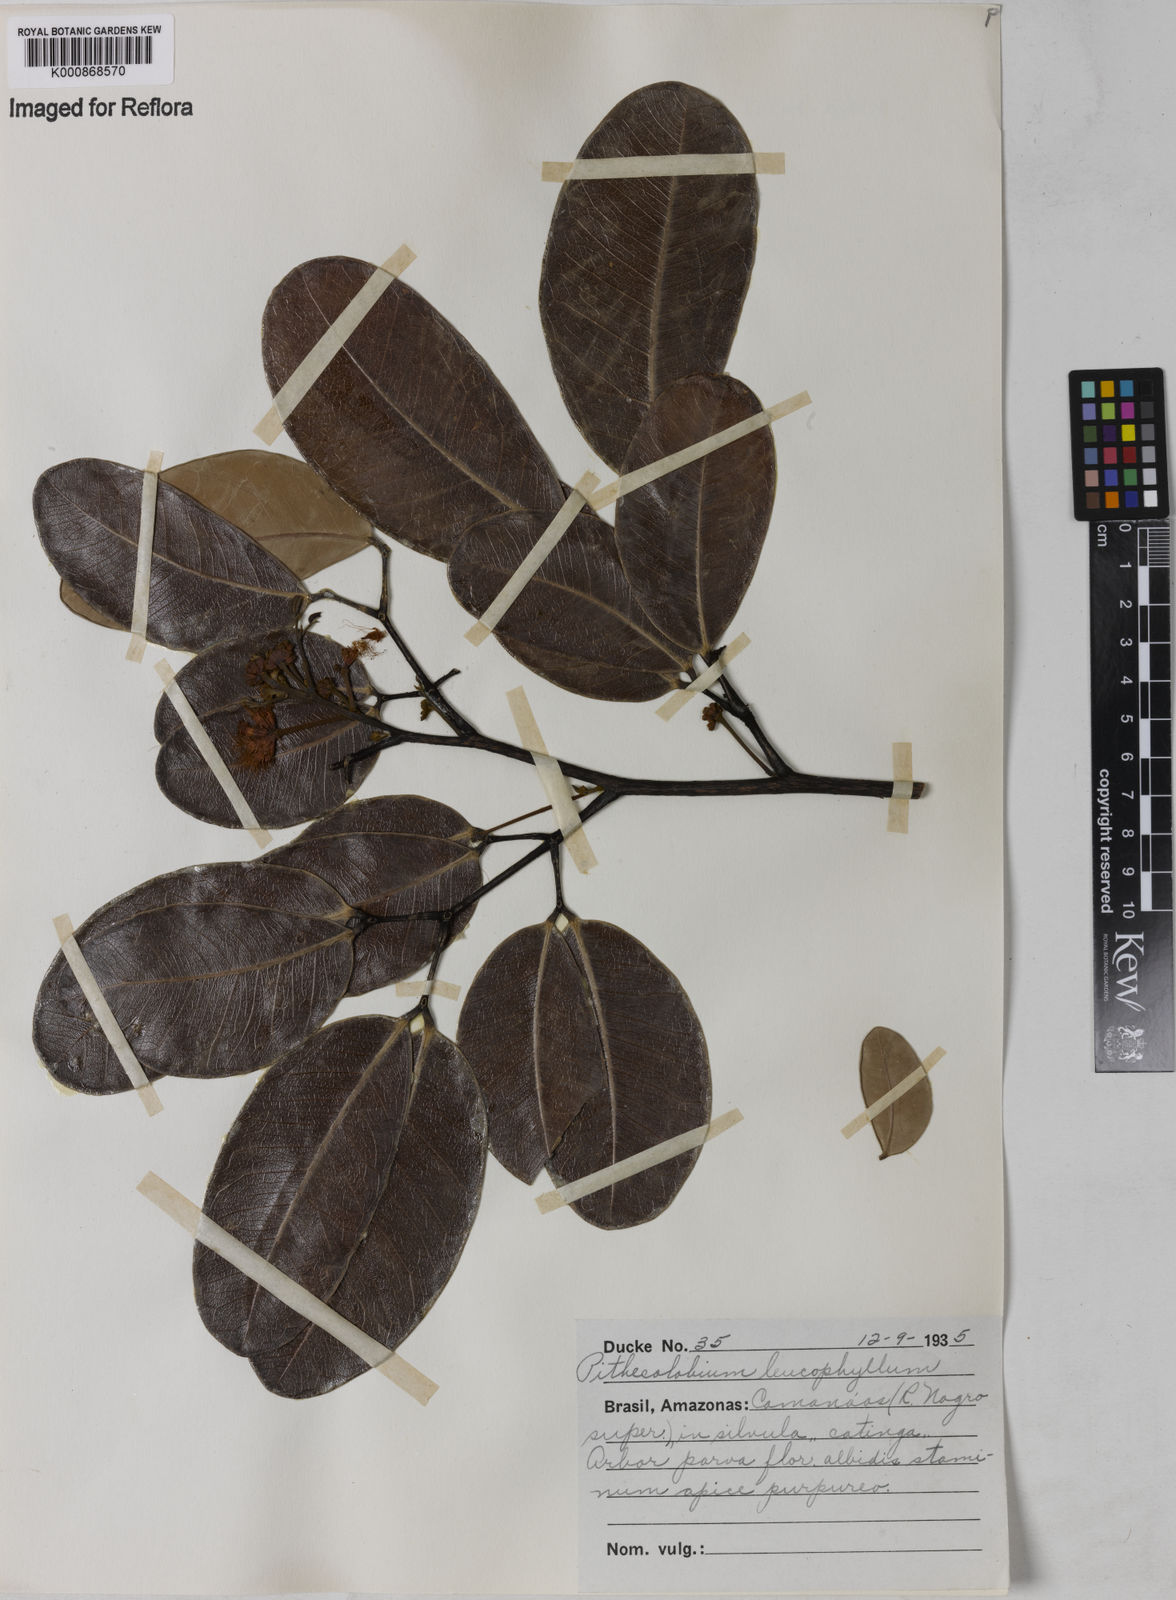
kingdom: Plantae
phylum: Tracheophyta
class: Magnoliopsida
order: Fabales
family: Fabaceae
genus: Jupunba
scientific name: Jupunba leucophylla
